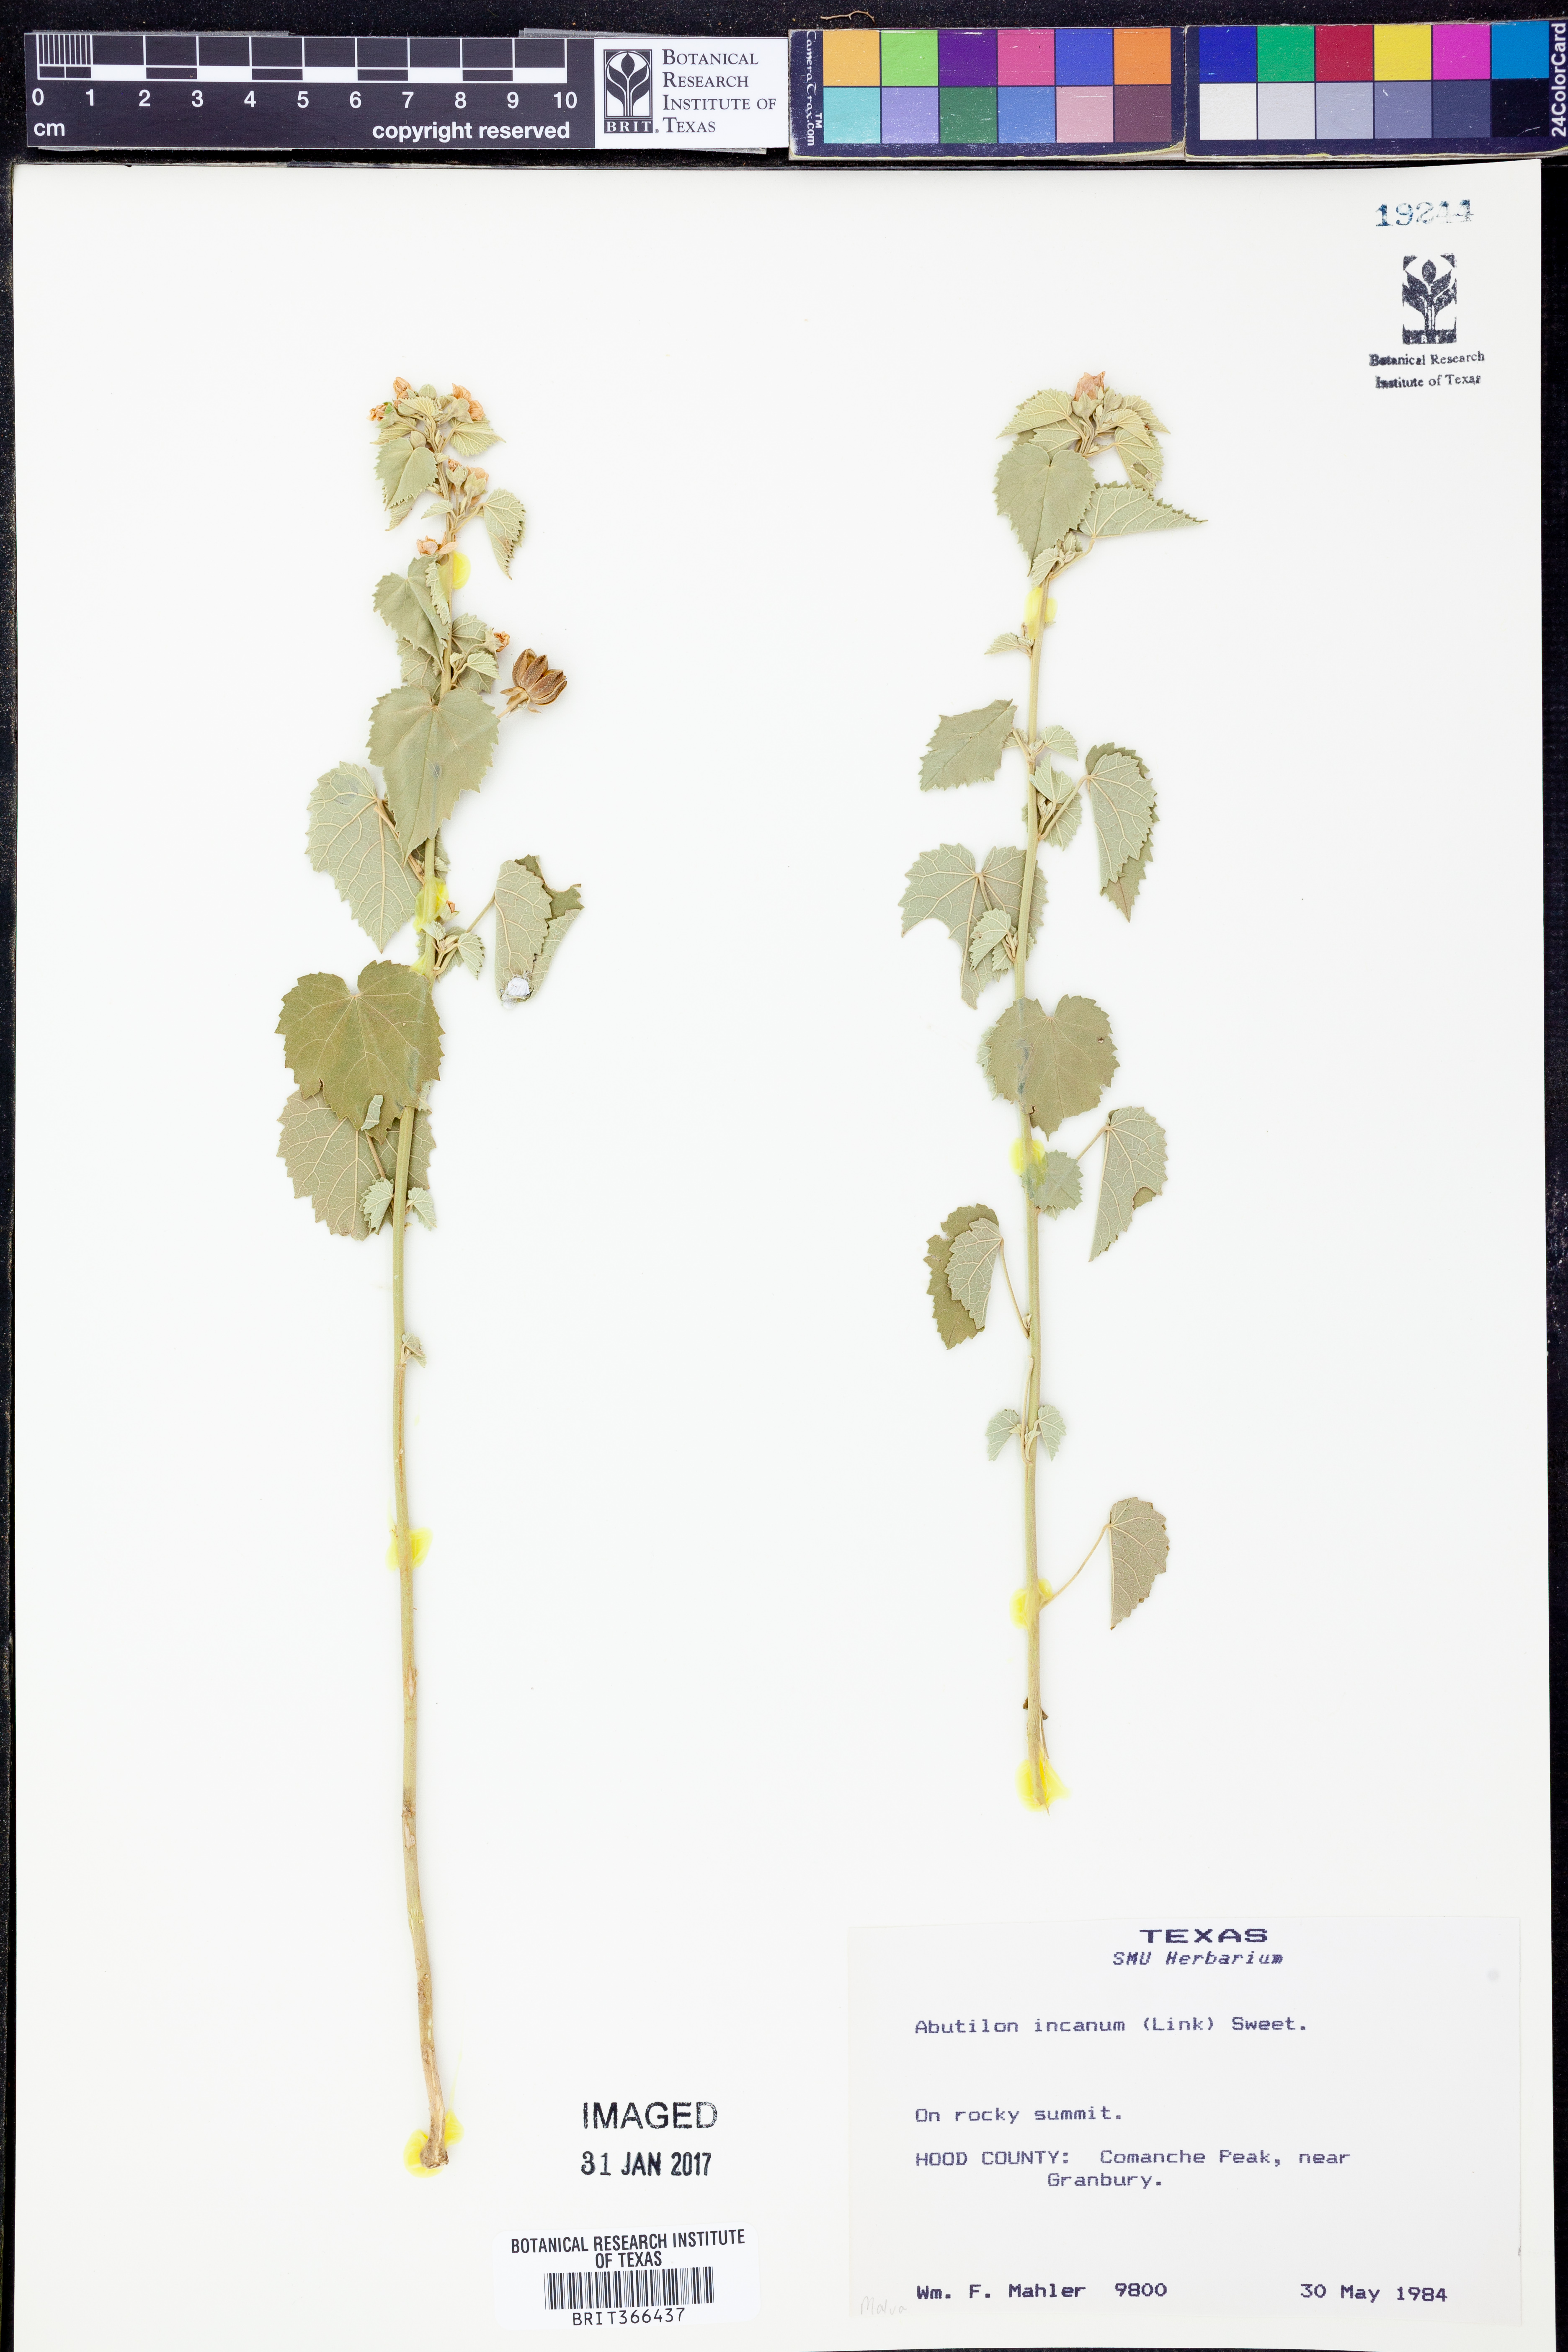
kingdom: Plantae
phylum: Tracheophyta
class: Magnoliopsida
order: Malvales
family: Malvaceae
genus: Abutilon
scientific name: Abutilon incanum
